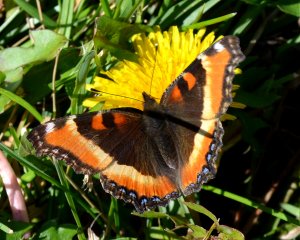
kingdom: Animalia
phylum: Arthropoda
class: Insecta
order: Lepidoptera
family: Nymphalidae
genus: Aglais
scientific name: Aglais milberti
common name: Milbert's Tortoiseshell
